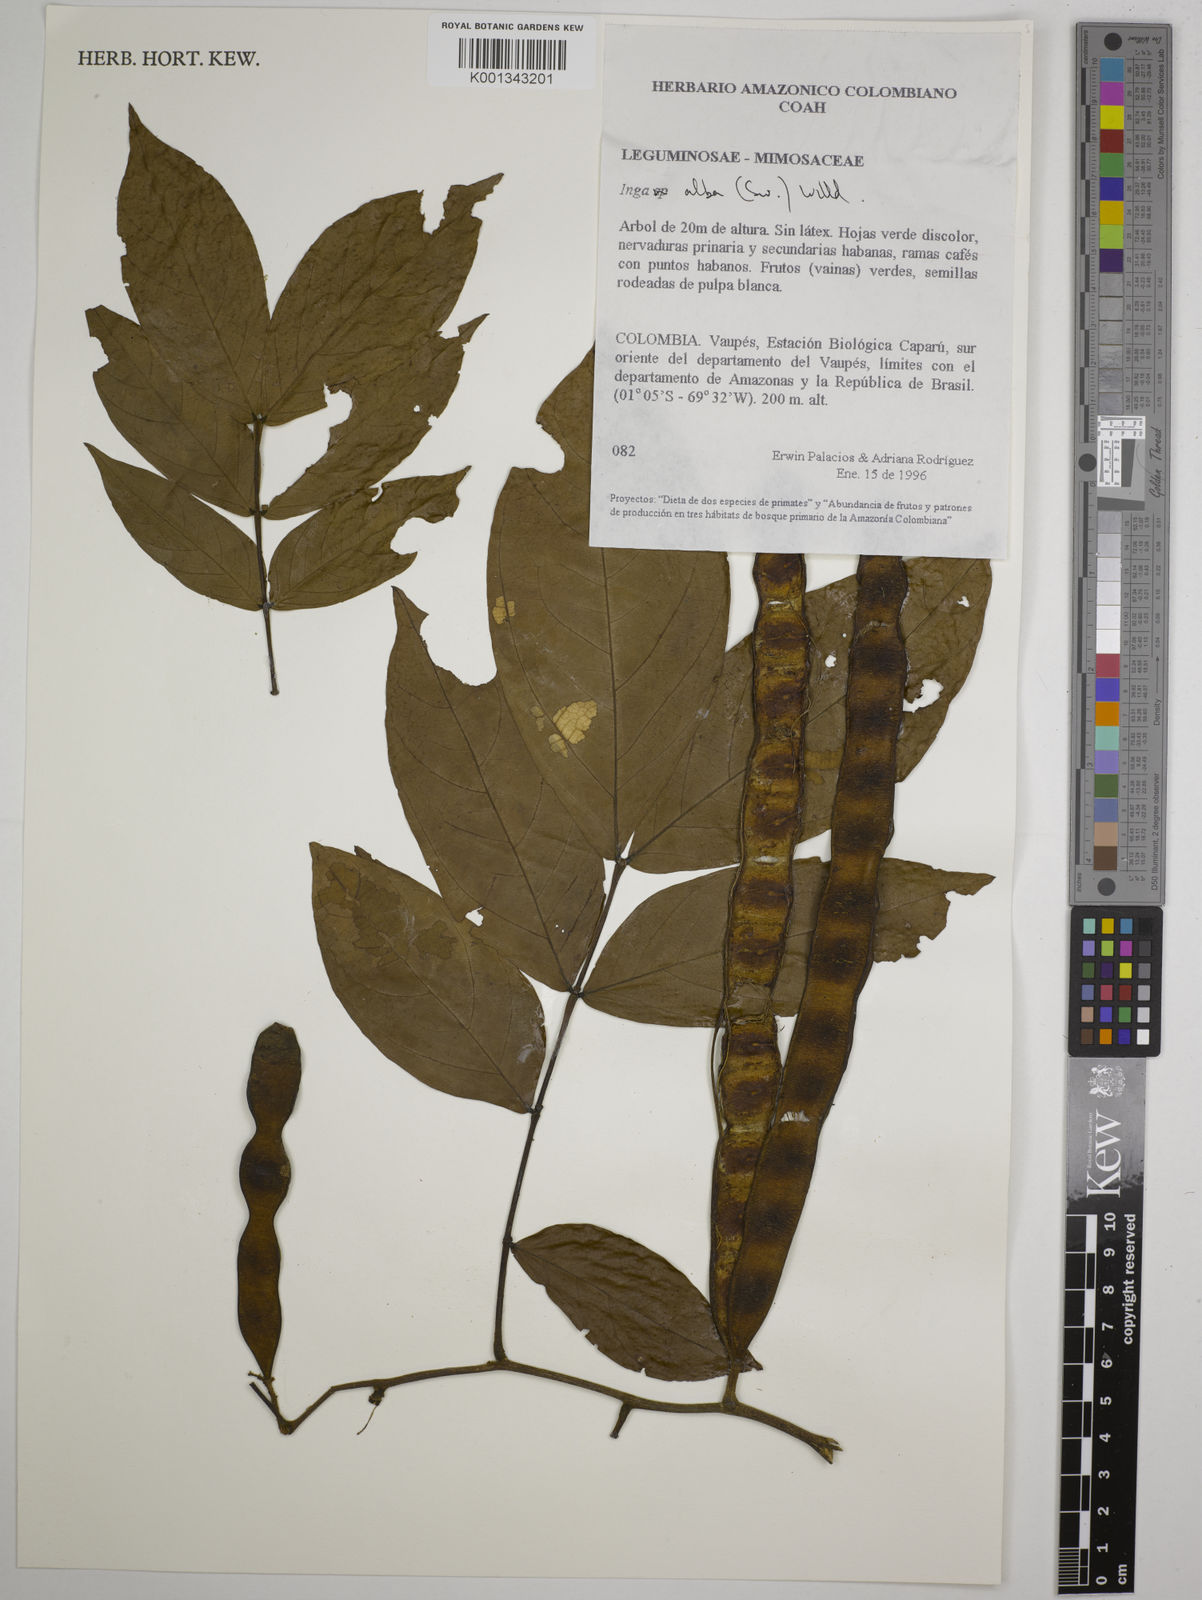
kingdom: Plantae
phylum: Tracheophyta
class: Magnoliopsida
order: Fabales
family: Fabaceae
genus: Inga
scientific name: Inga alba
